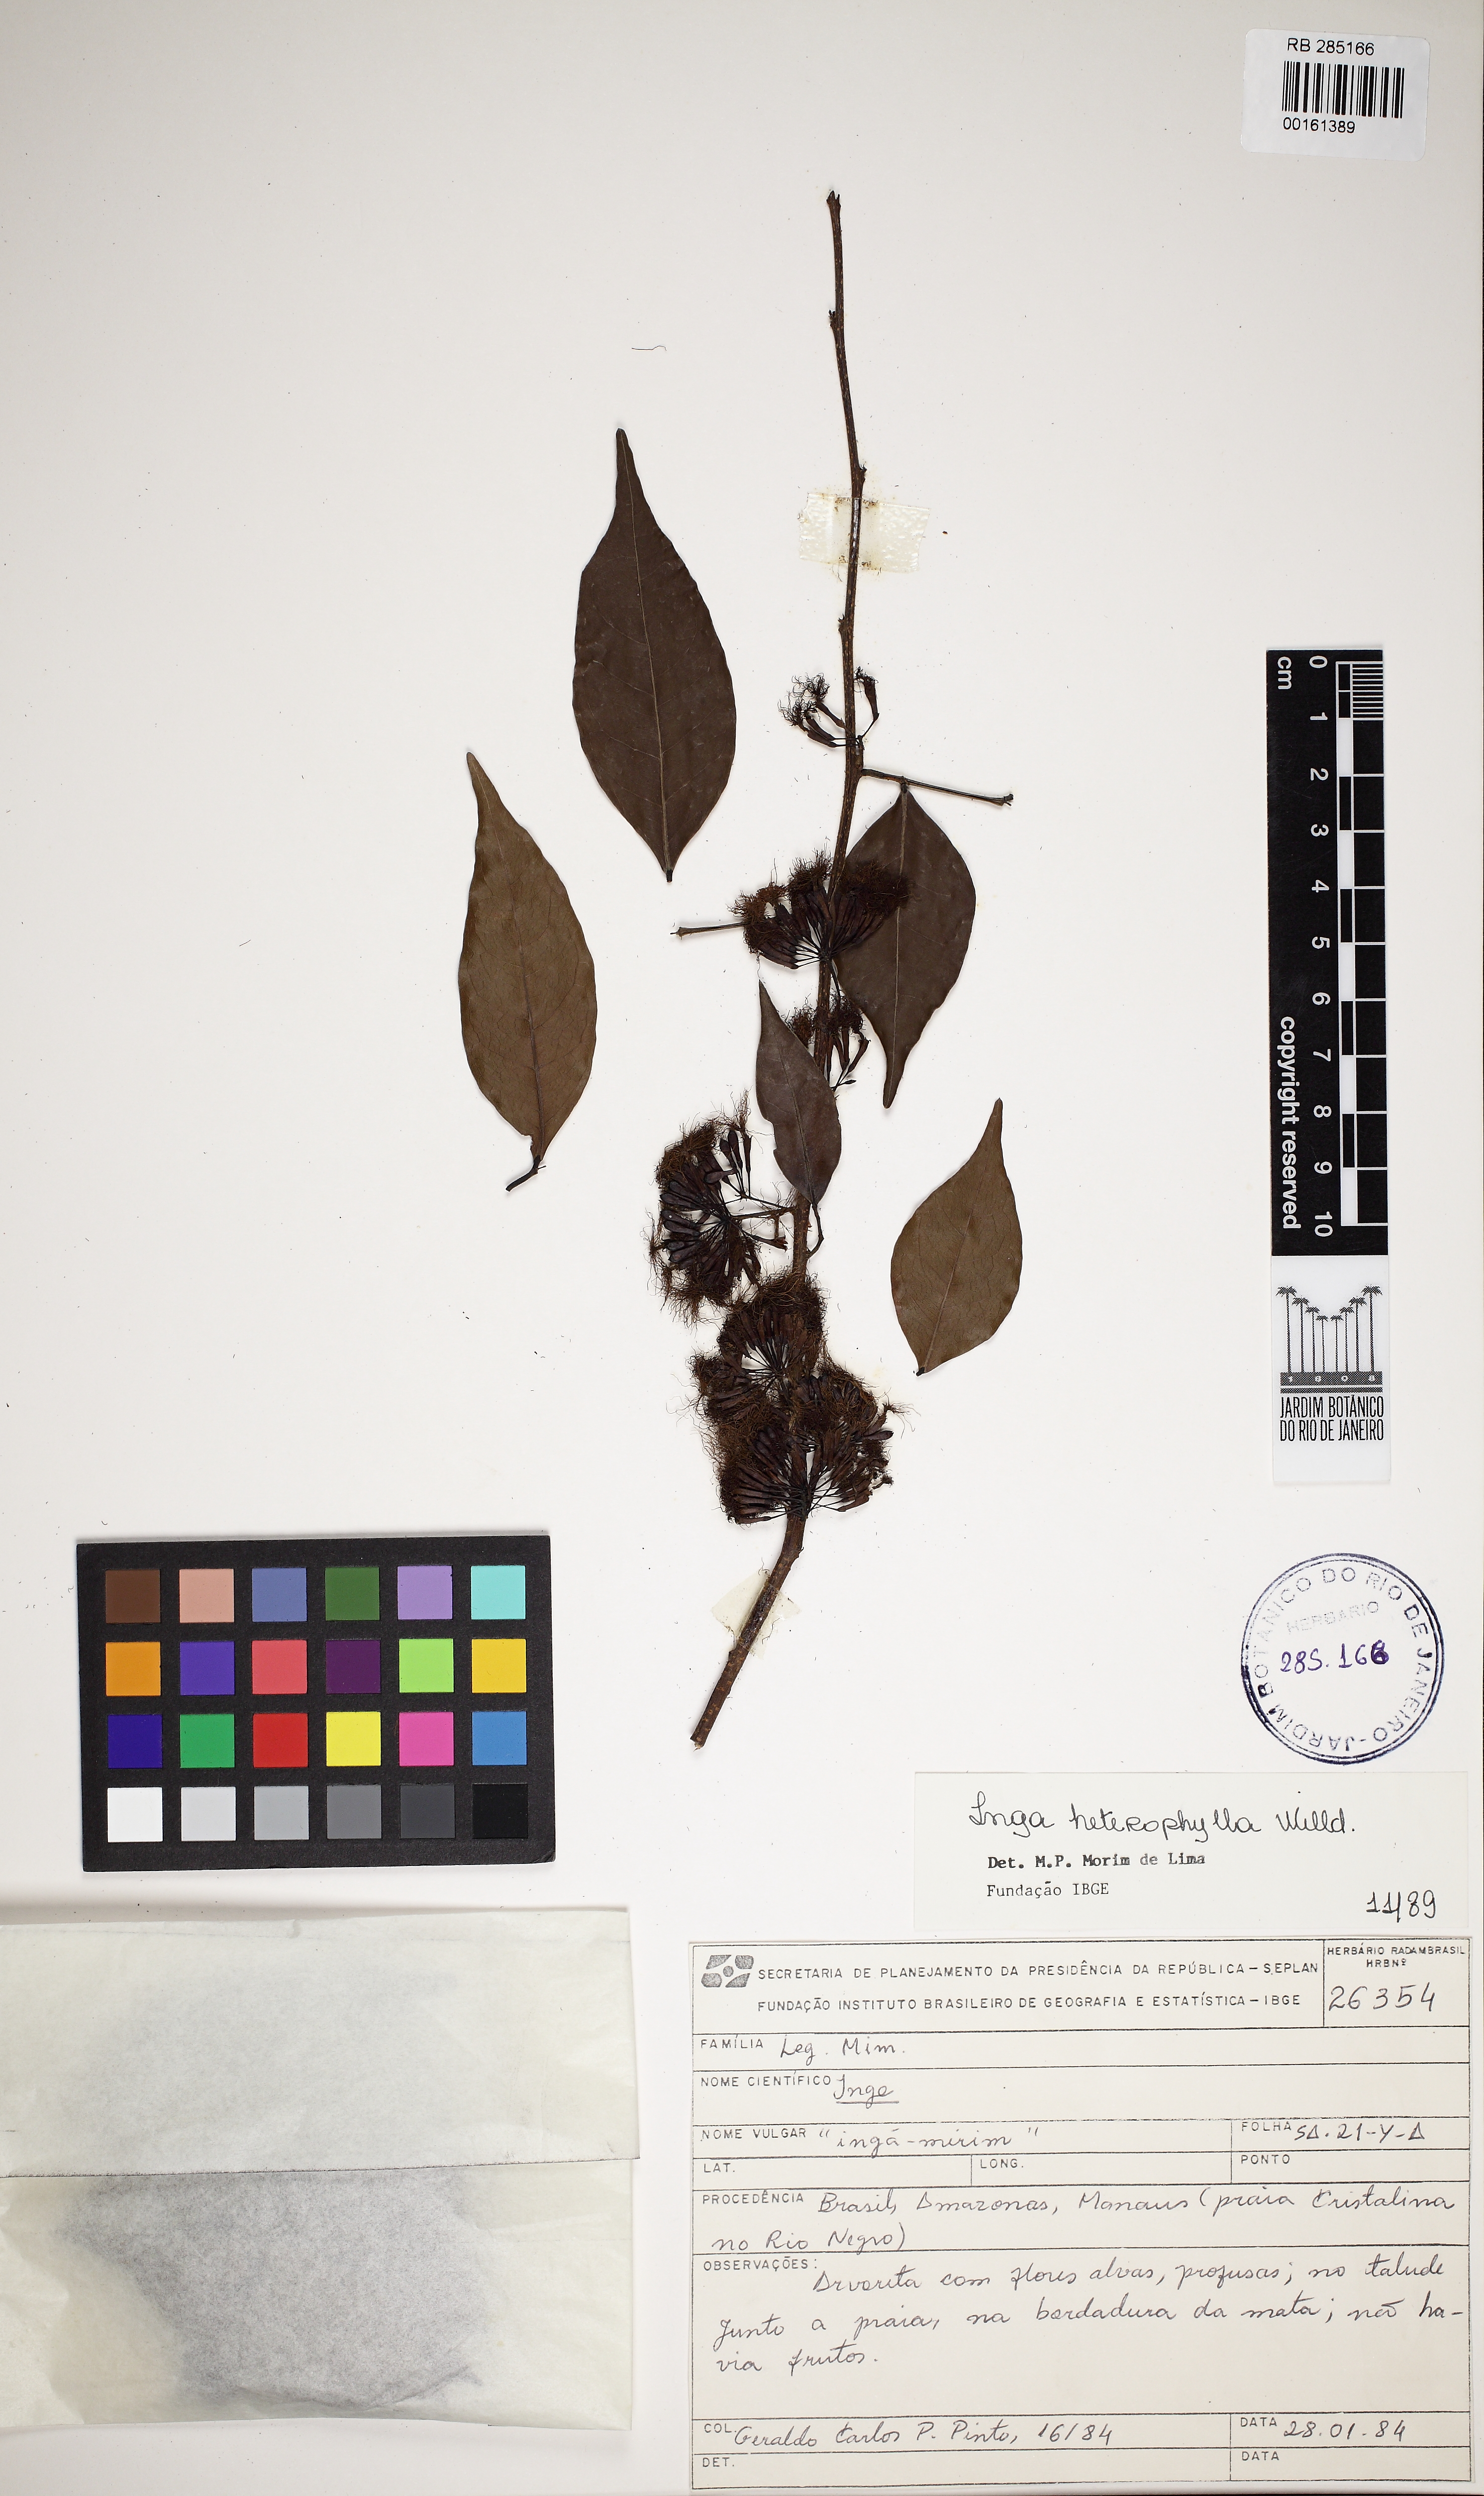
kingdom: Plantae
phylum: Tracheophyta
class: Magnoliopsida
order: Fabales
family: Fabaceae
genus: Inga
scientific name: Inga heterophylla
